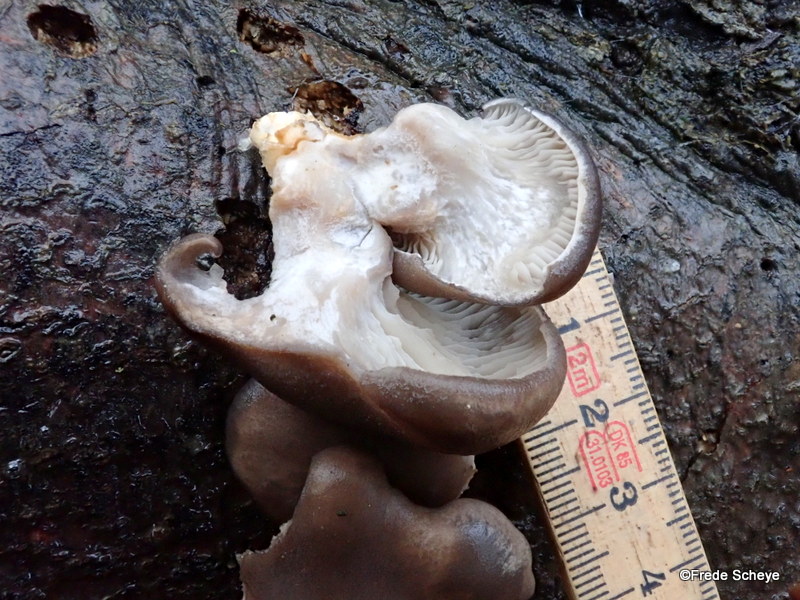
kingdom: Fungi
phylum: Basidiomycota
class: Agaricomycetes
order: Agaricales
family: Pleurotaceae
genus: Pleurotus
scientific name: Pleurotus ostreatus
